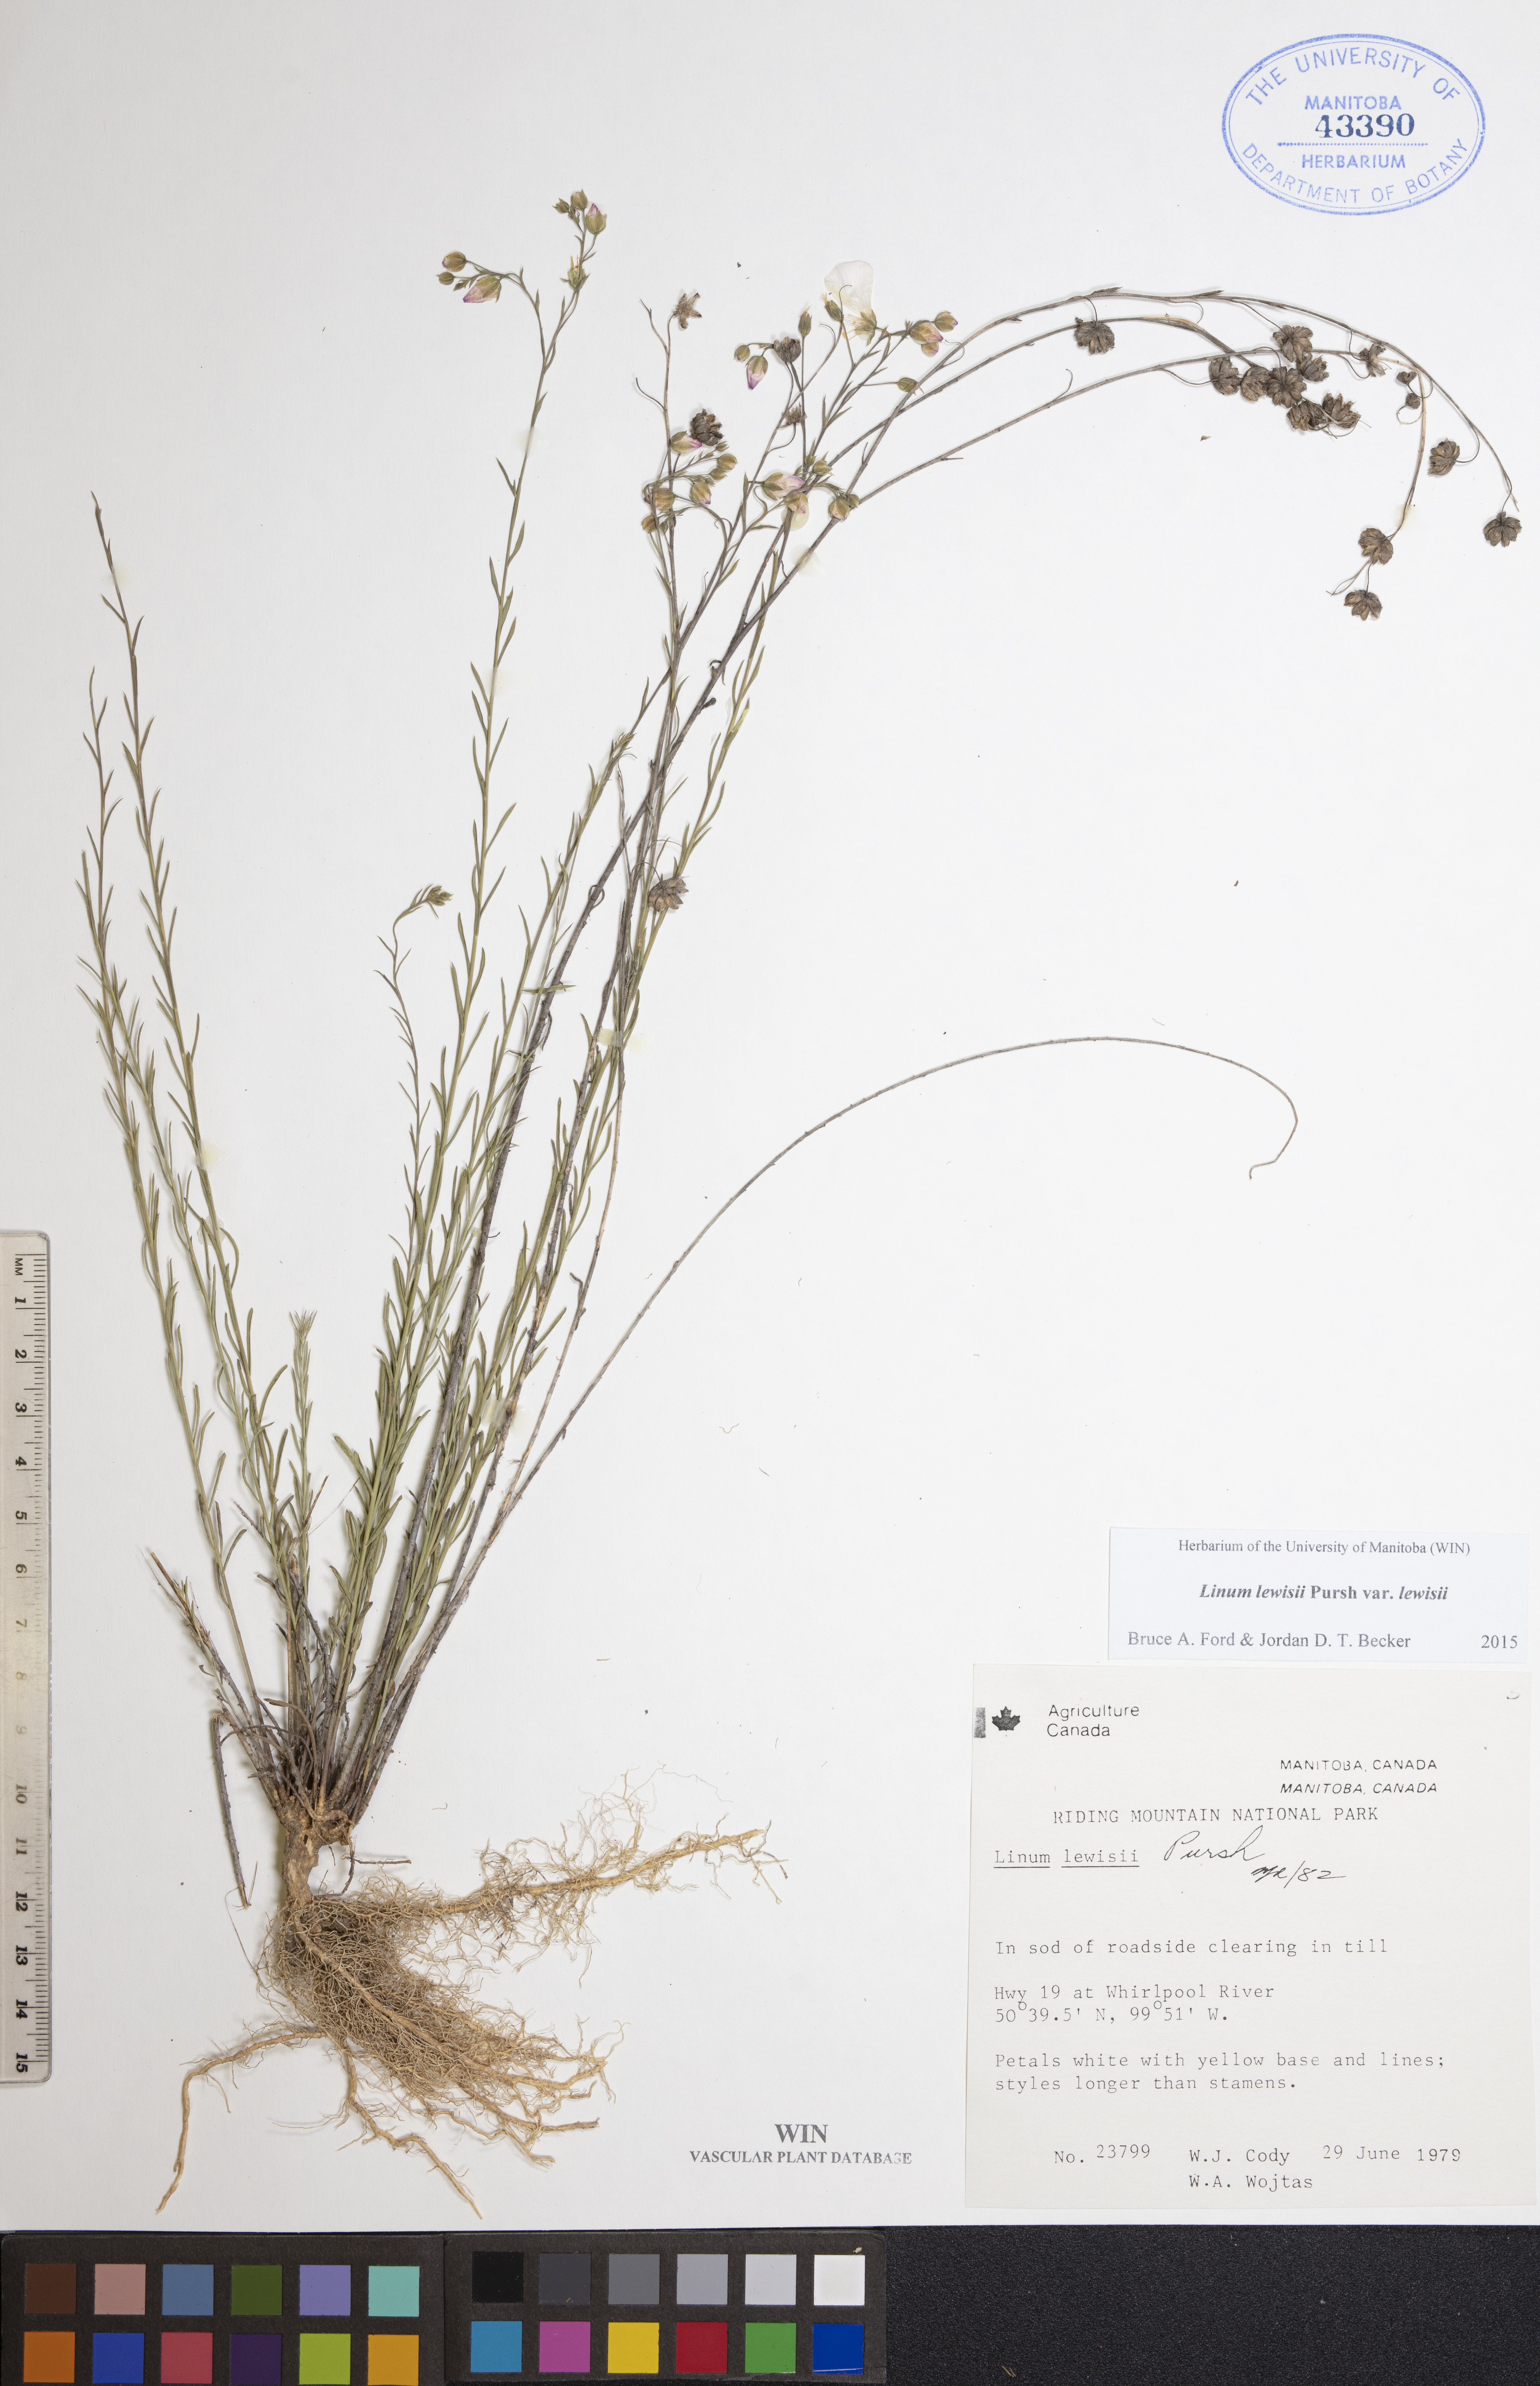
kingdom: Plantae
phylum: Tracheophyta
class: Magnoliopsida
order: Malpighiales
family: Linaceae
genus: Linum
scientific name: Linum lewisii
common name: Prairie flax
